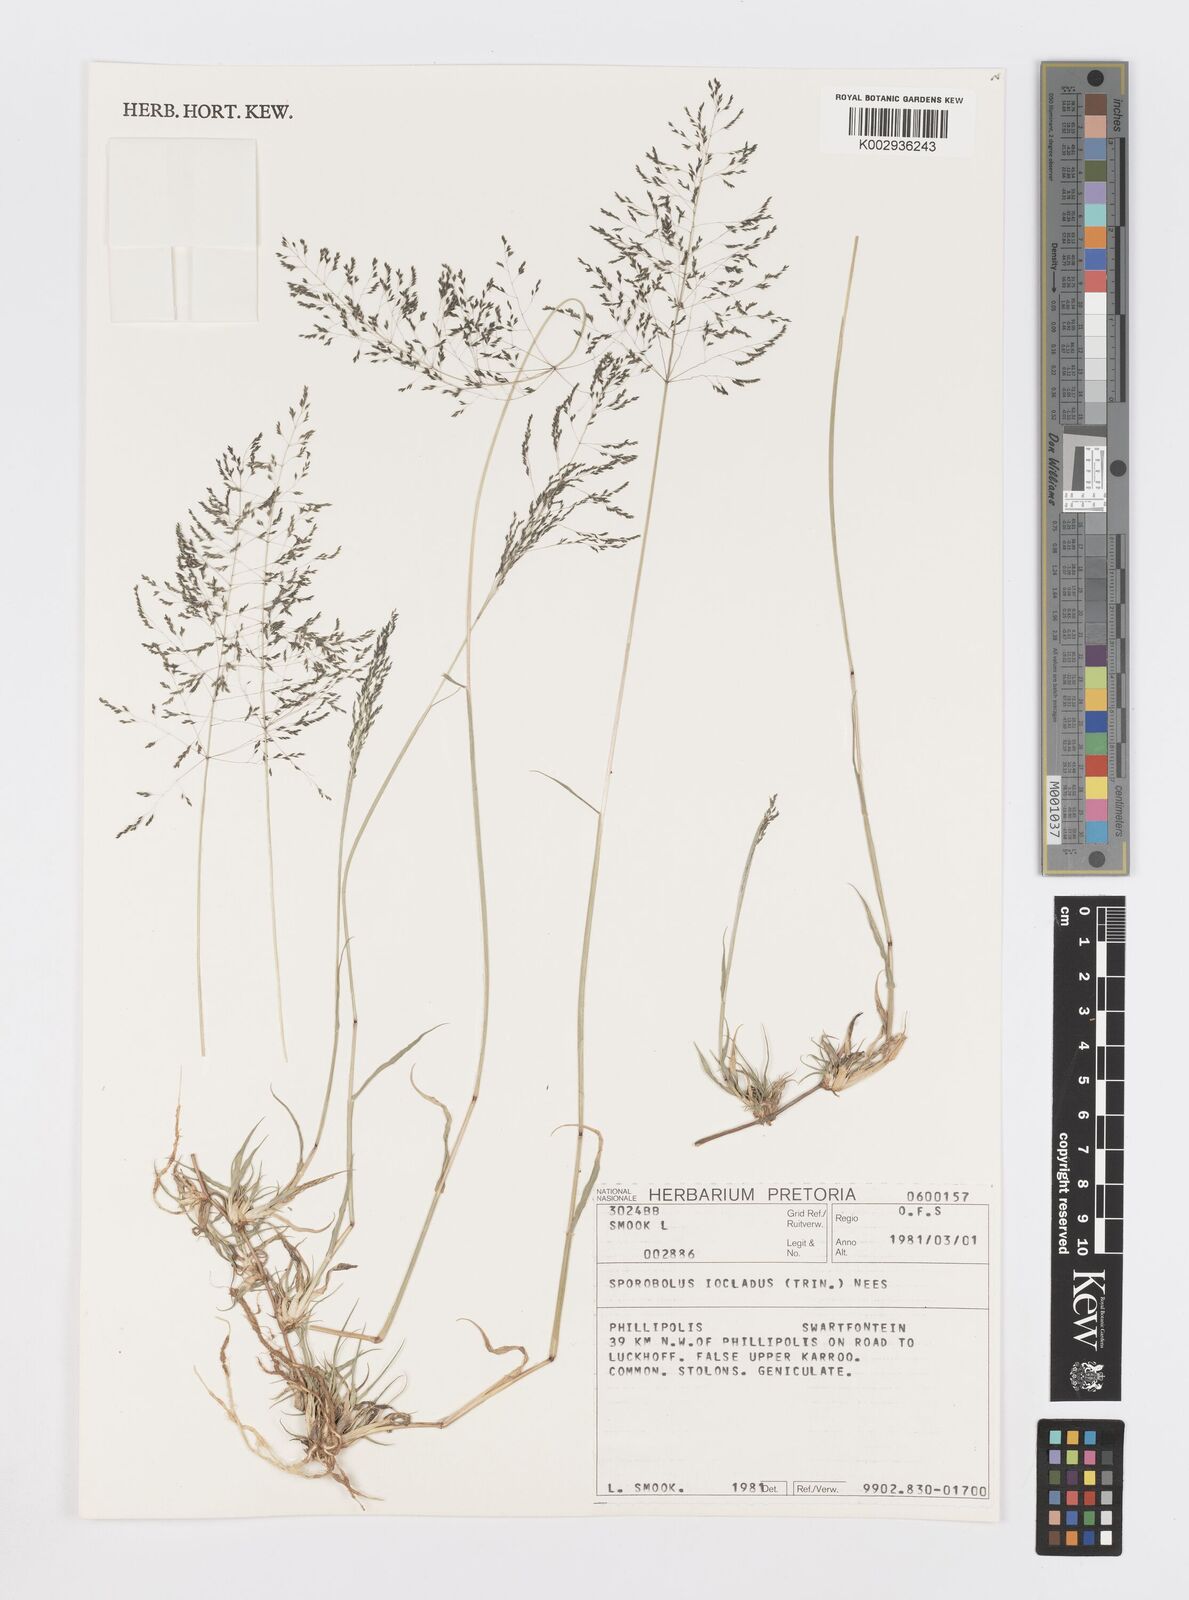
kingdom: Plantae
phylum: Tracheophyta
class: Liliopsida
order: Poales
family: Poaceae
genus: Sporobolus
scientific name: Sporobolus ioclados
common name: Pan dropseed
